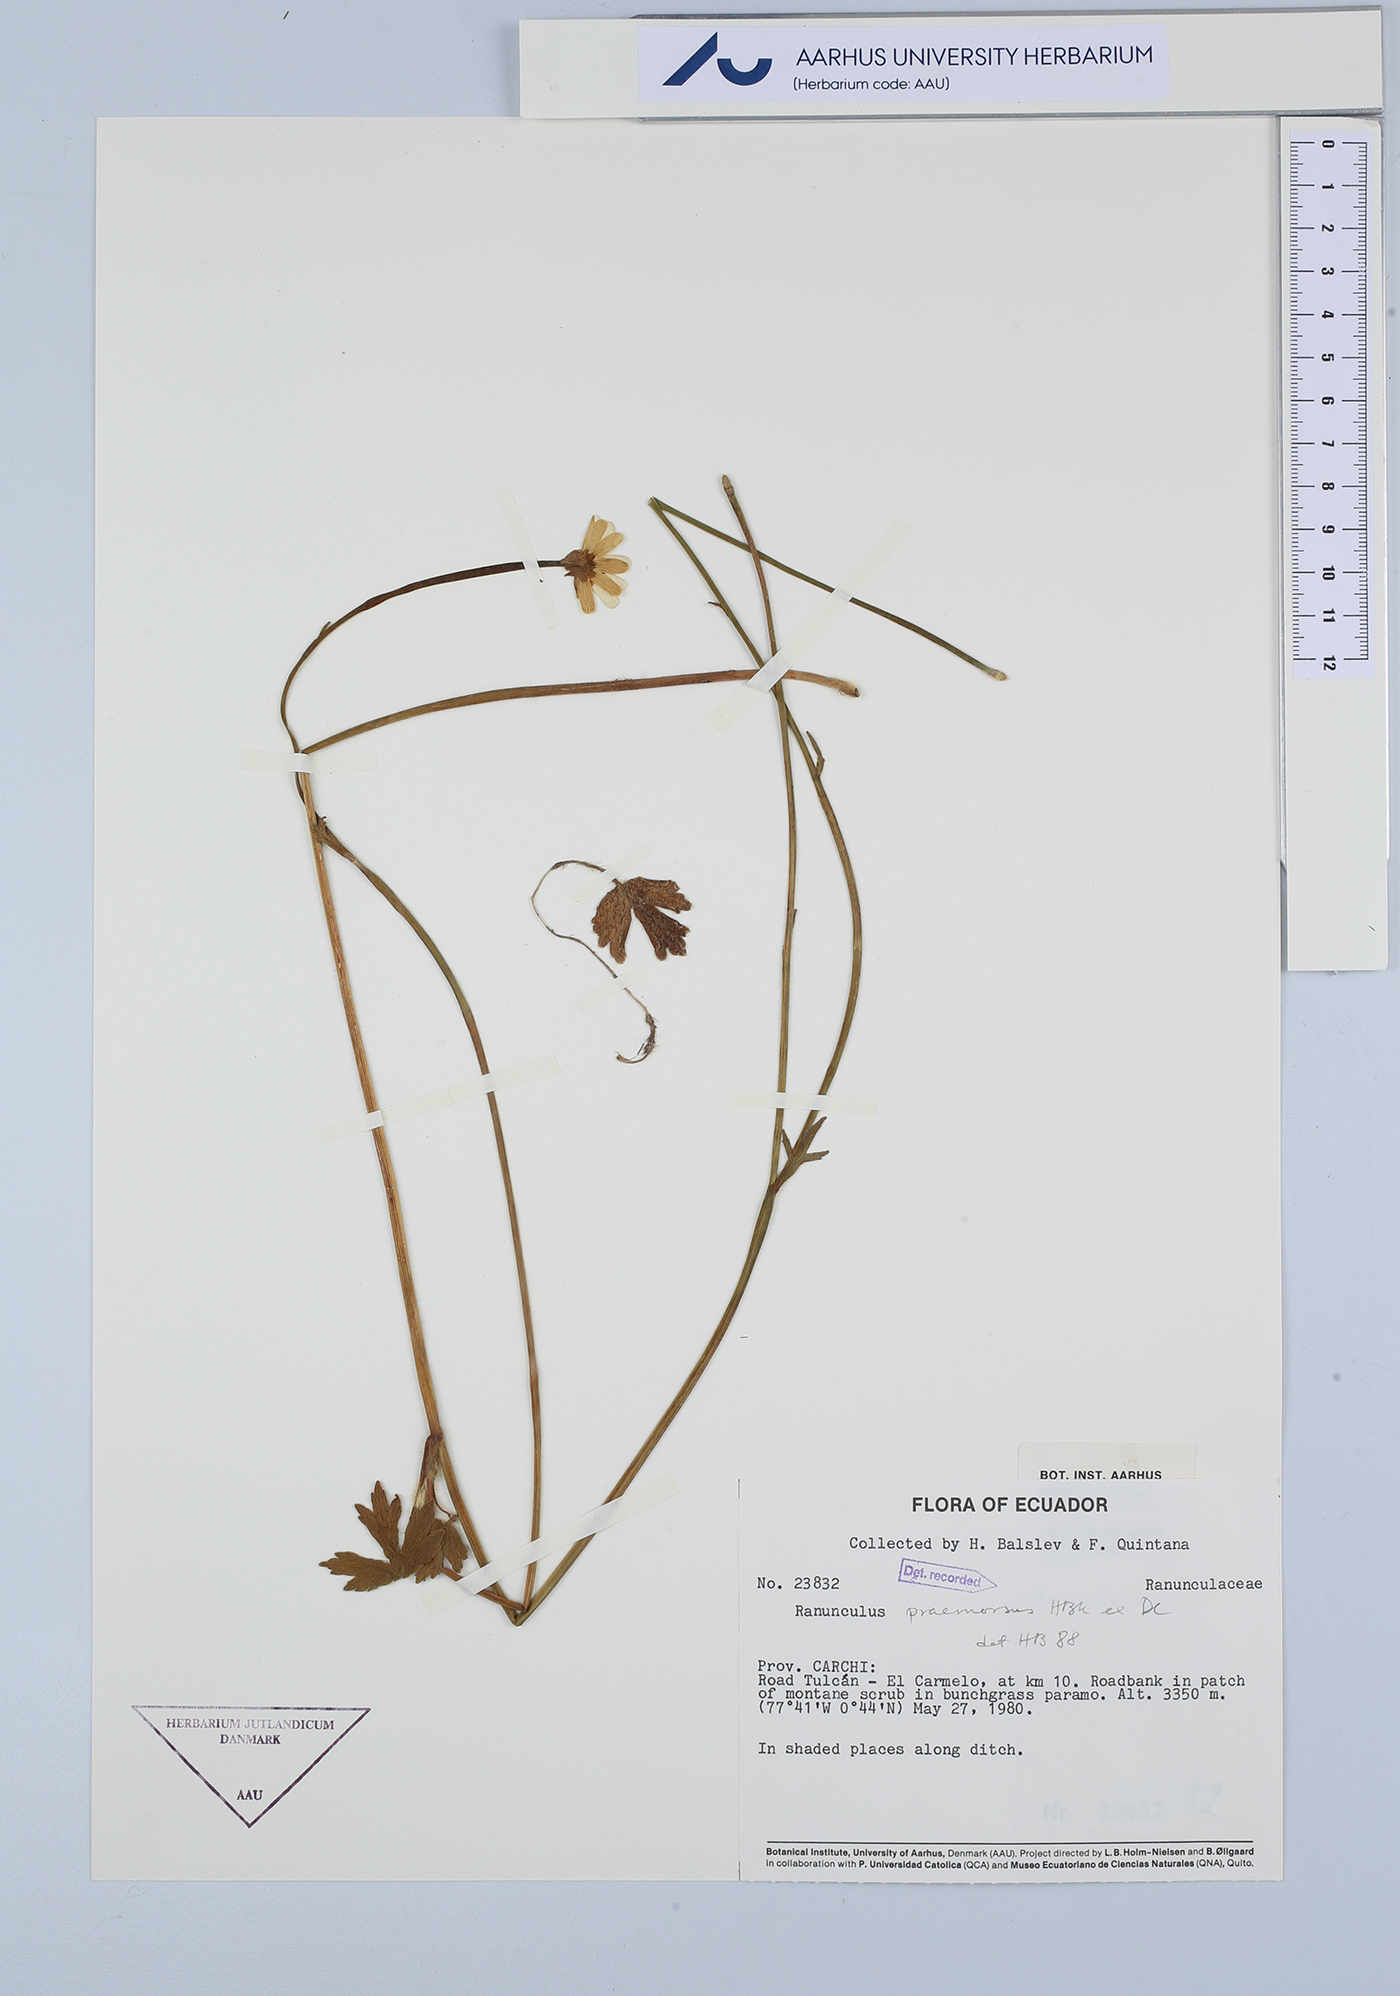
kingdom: Plantae
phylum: Tracheophyta
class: Magnoliopsida
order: Ranunculales
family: Ranunculaceae
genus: Ranunculus
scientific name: Ranunculus praemorsus
